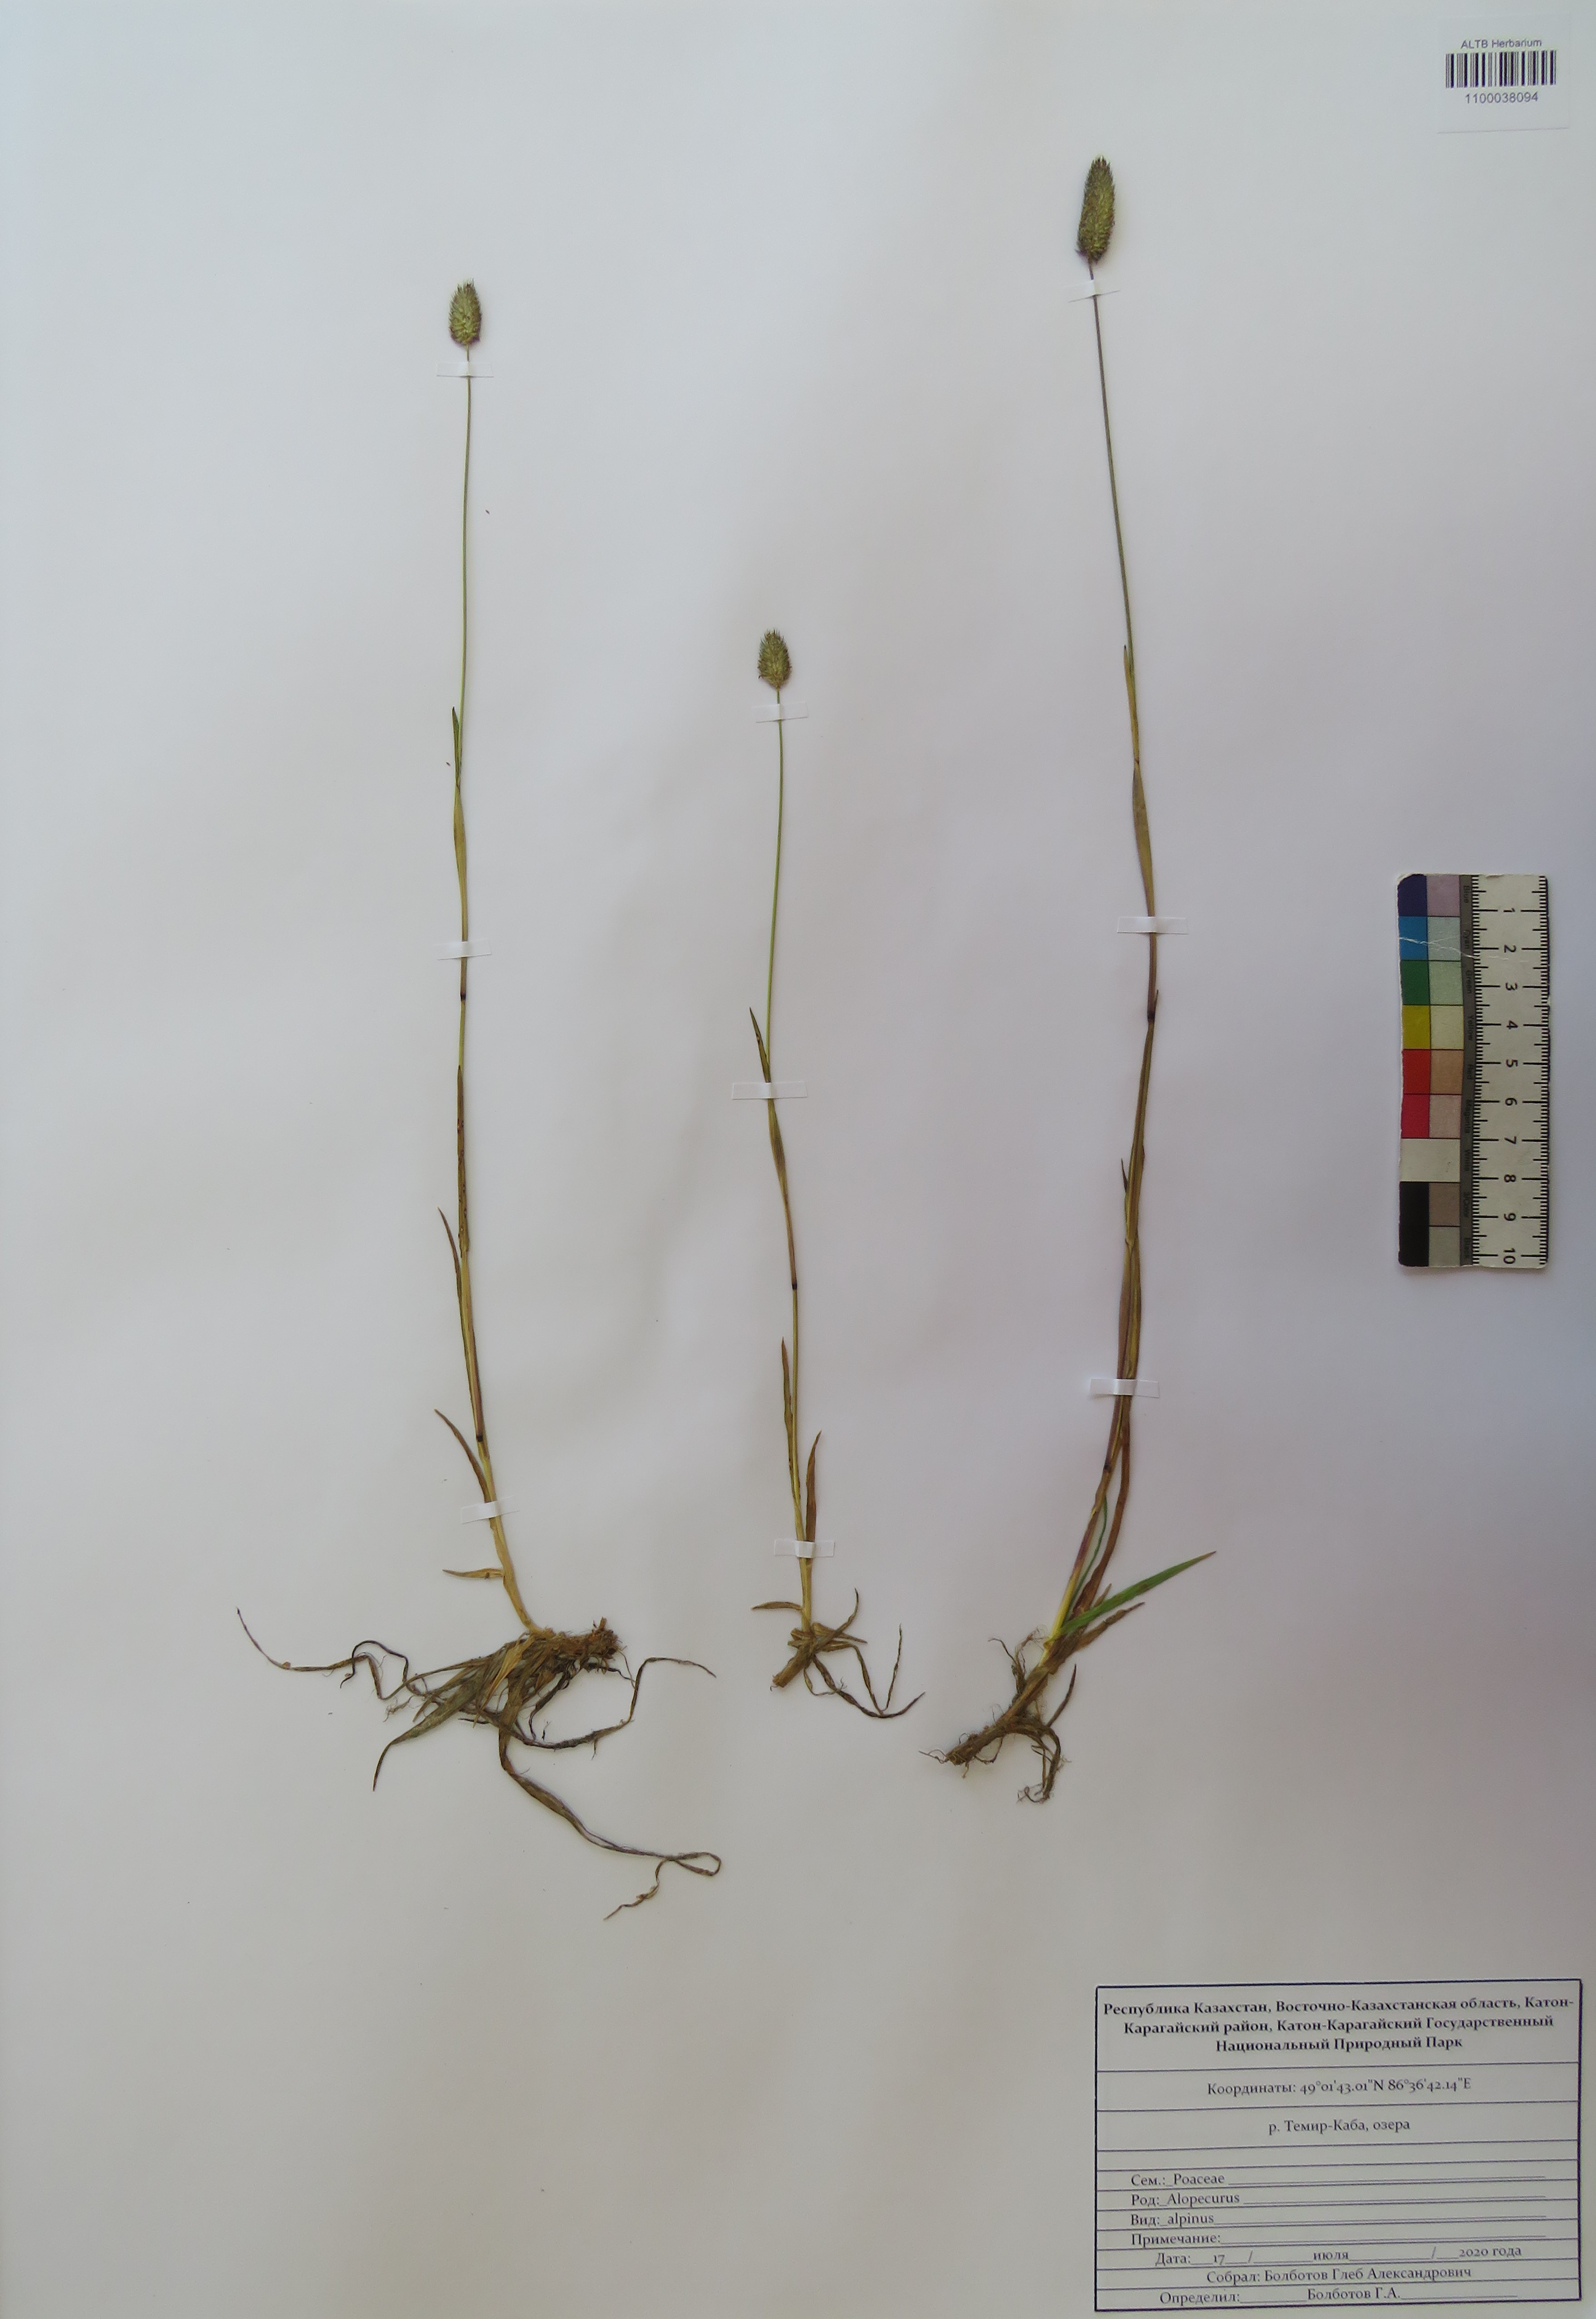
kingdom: Plantae
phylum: Tracheophyta
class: Liliopsida
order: Poales
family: Poaceae
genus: Alopecurus
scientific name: Alopecurus magellanicus
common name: Alpine foxtail
